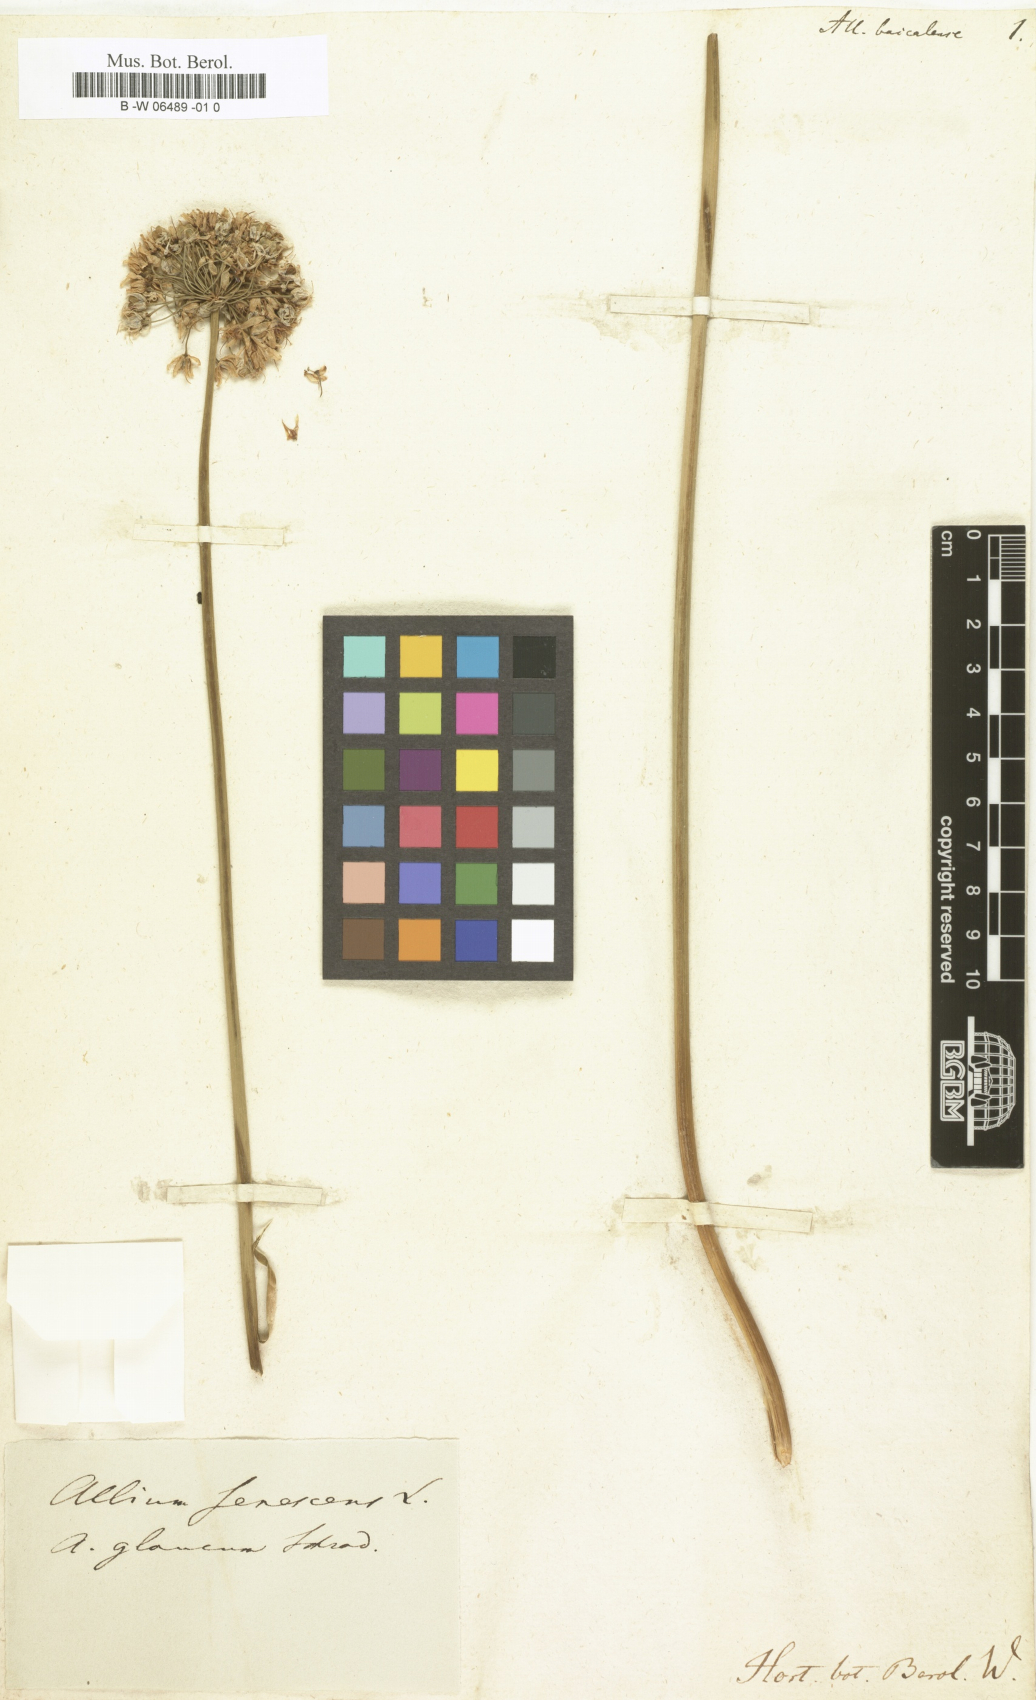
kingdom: Plantae
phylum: Tracheophyta
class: Liliopsida
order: Asparagales
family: Amaryllidaceae
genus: Allium
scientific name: Allium senescens
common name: German garlic
